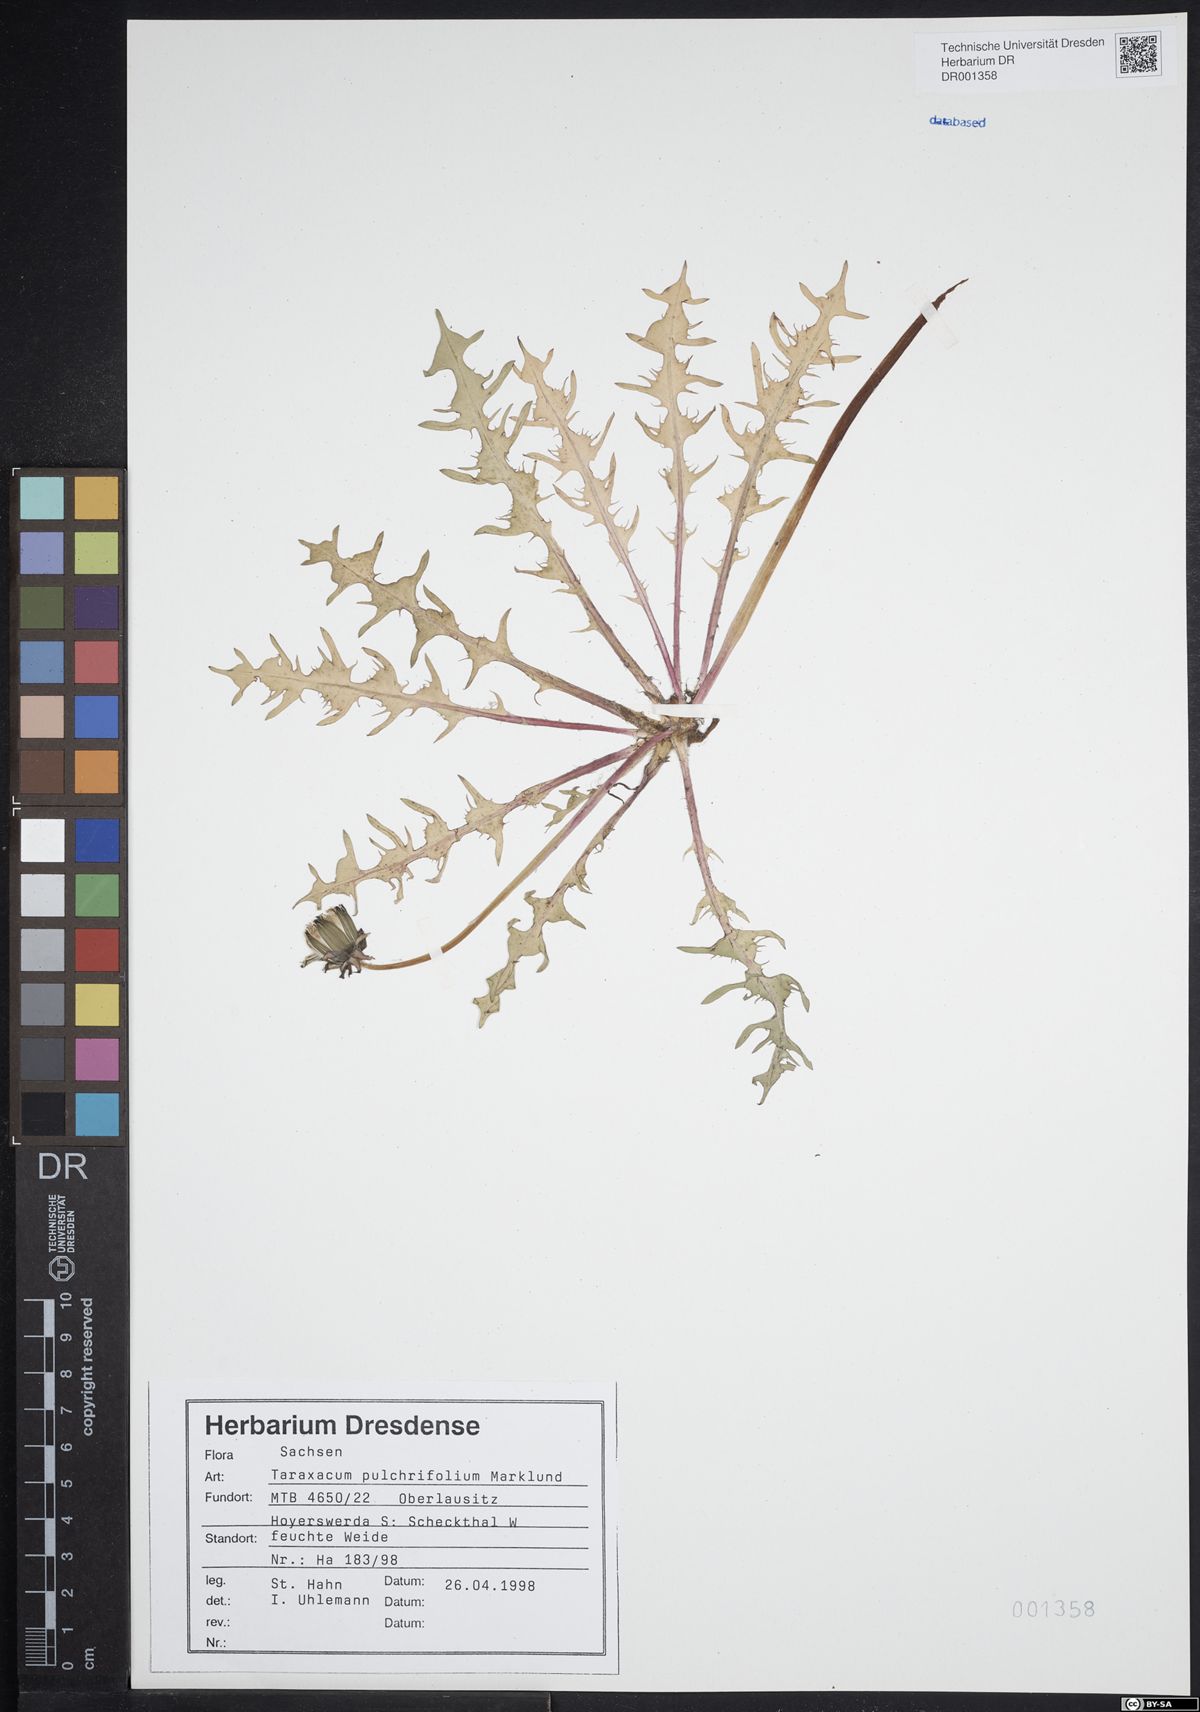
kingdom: Plantae
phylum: Tracheophyta
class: Magnoliopsida
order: Asterales
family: Asteraceae
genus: Taraxacum
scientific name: Taraxacum pulchrifolium
